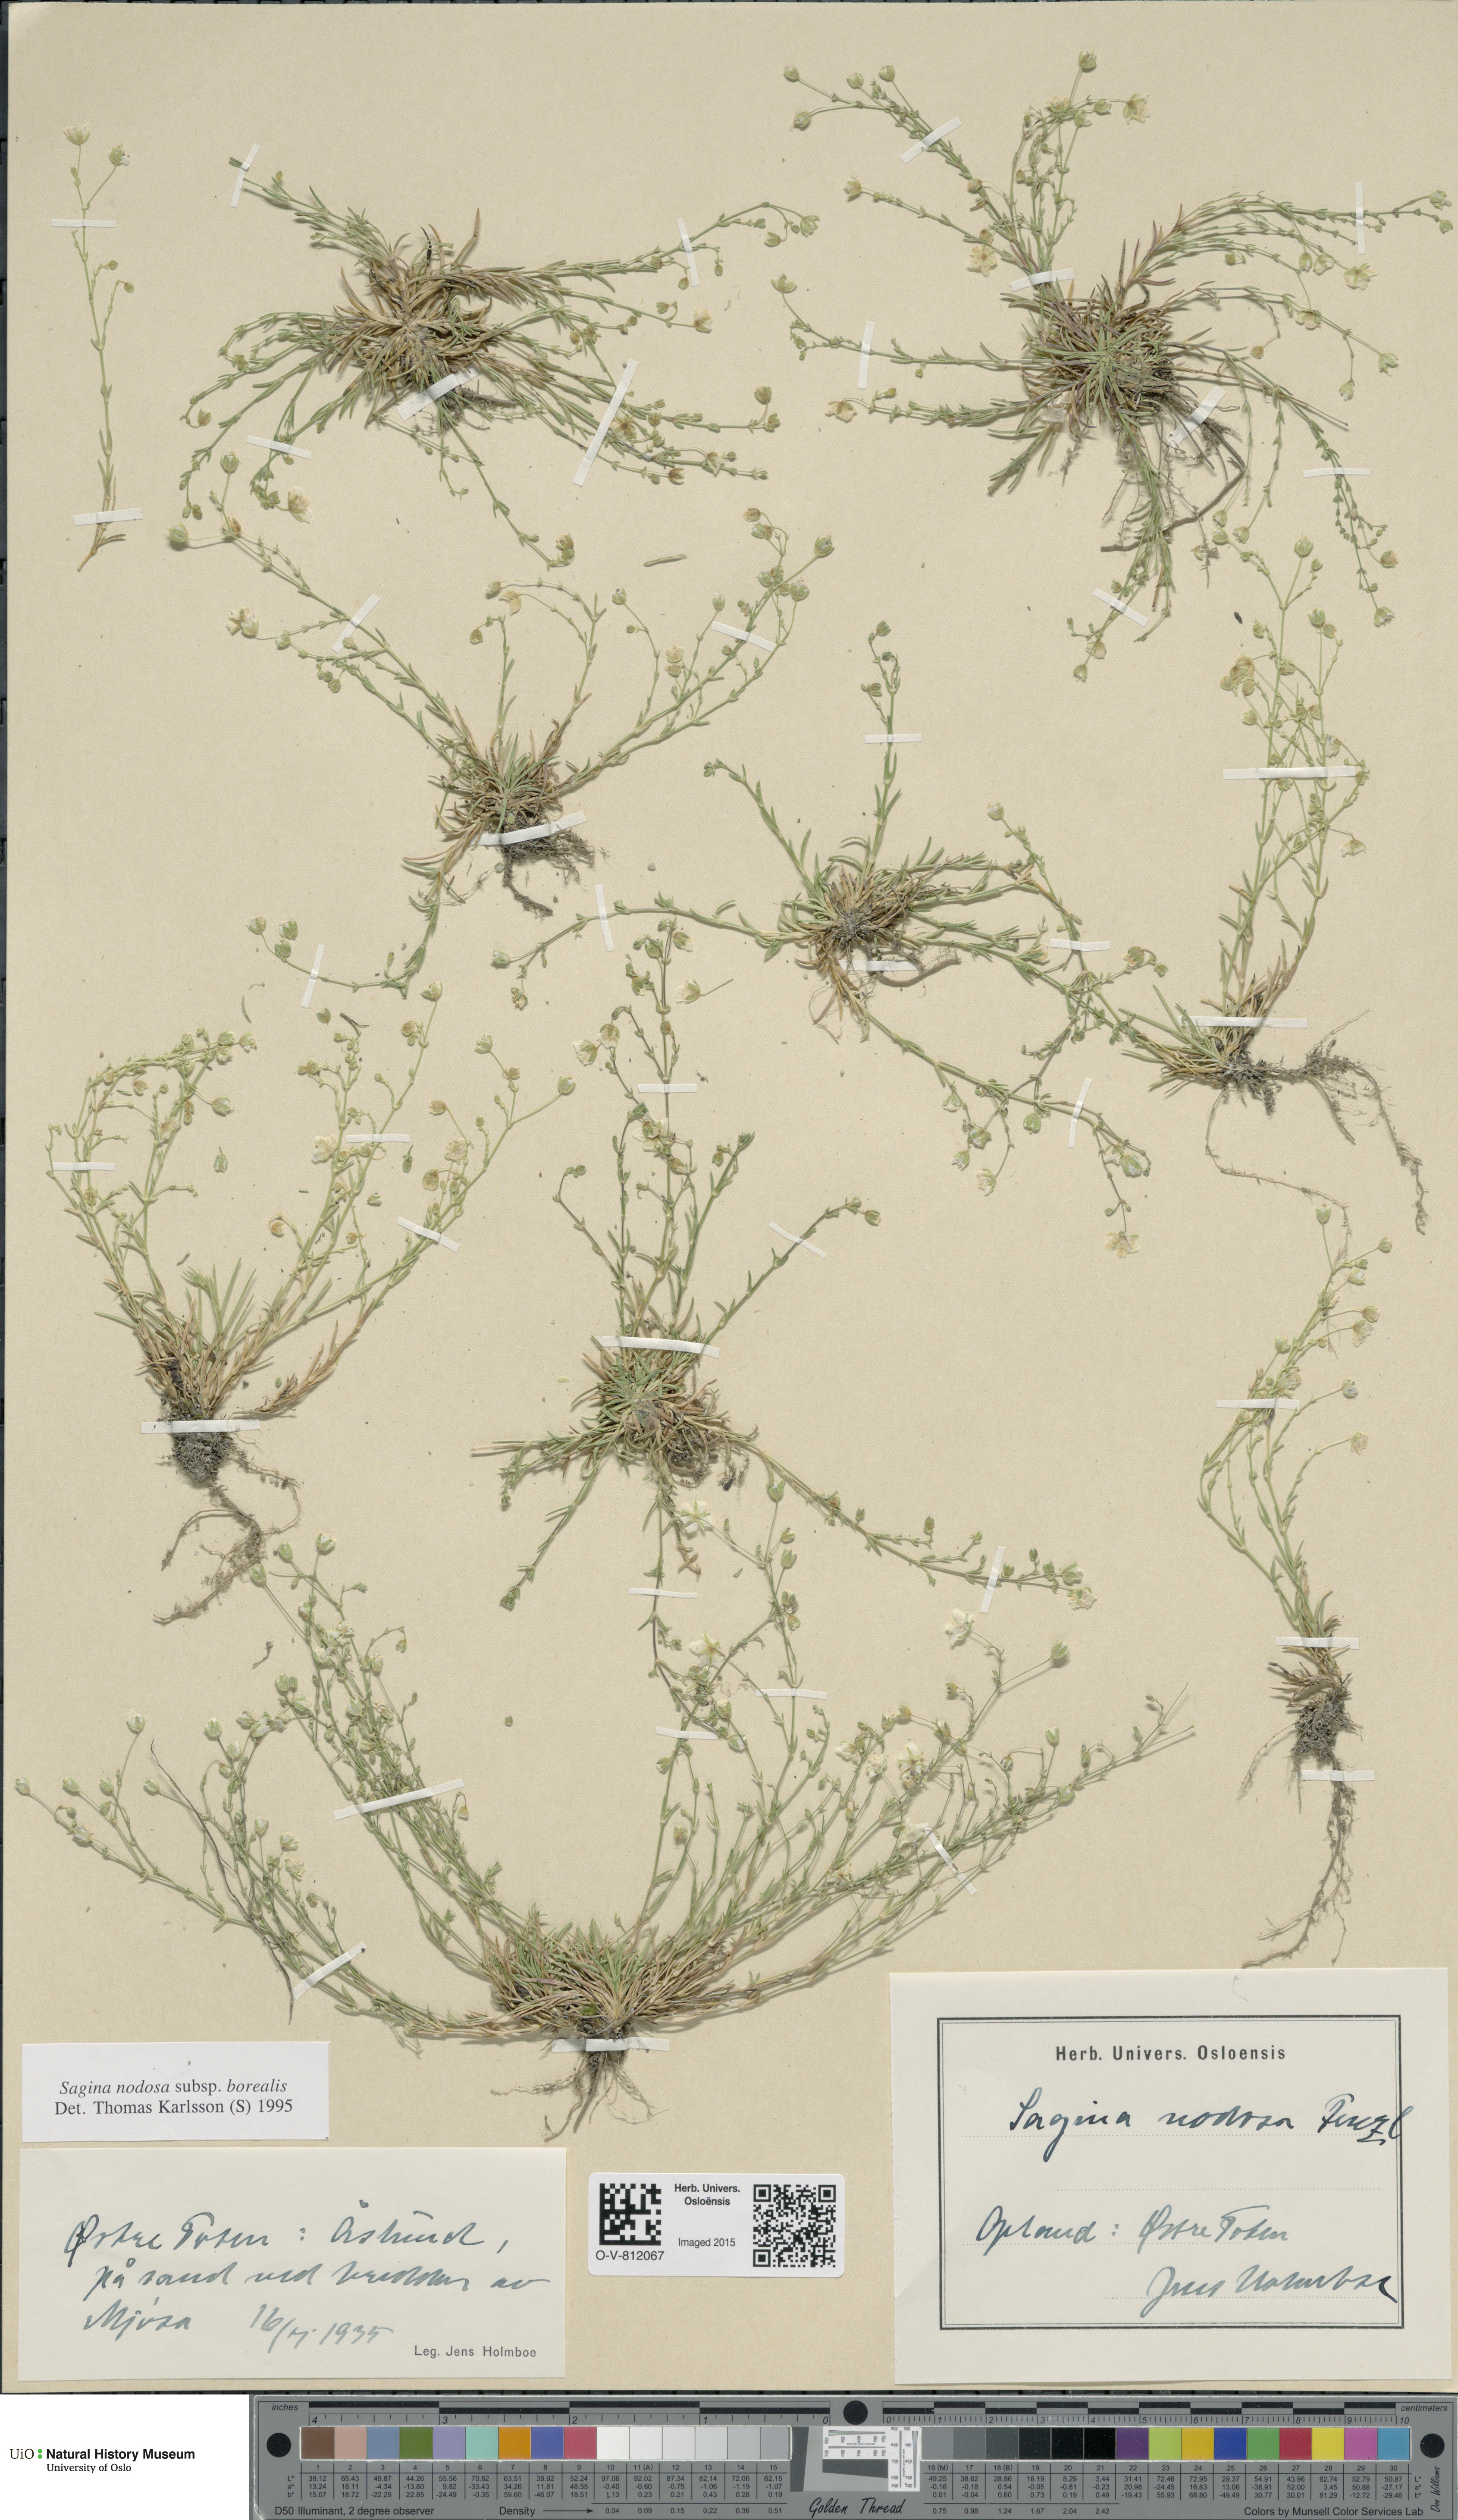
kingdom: Plantae
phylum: Tracheophyta
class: Magnoliopsida
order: Caryophyllales
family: Caryophyllaceae
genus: Sagina
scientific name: Sagina nodosa
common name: Knotted pearlwort
